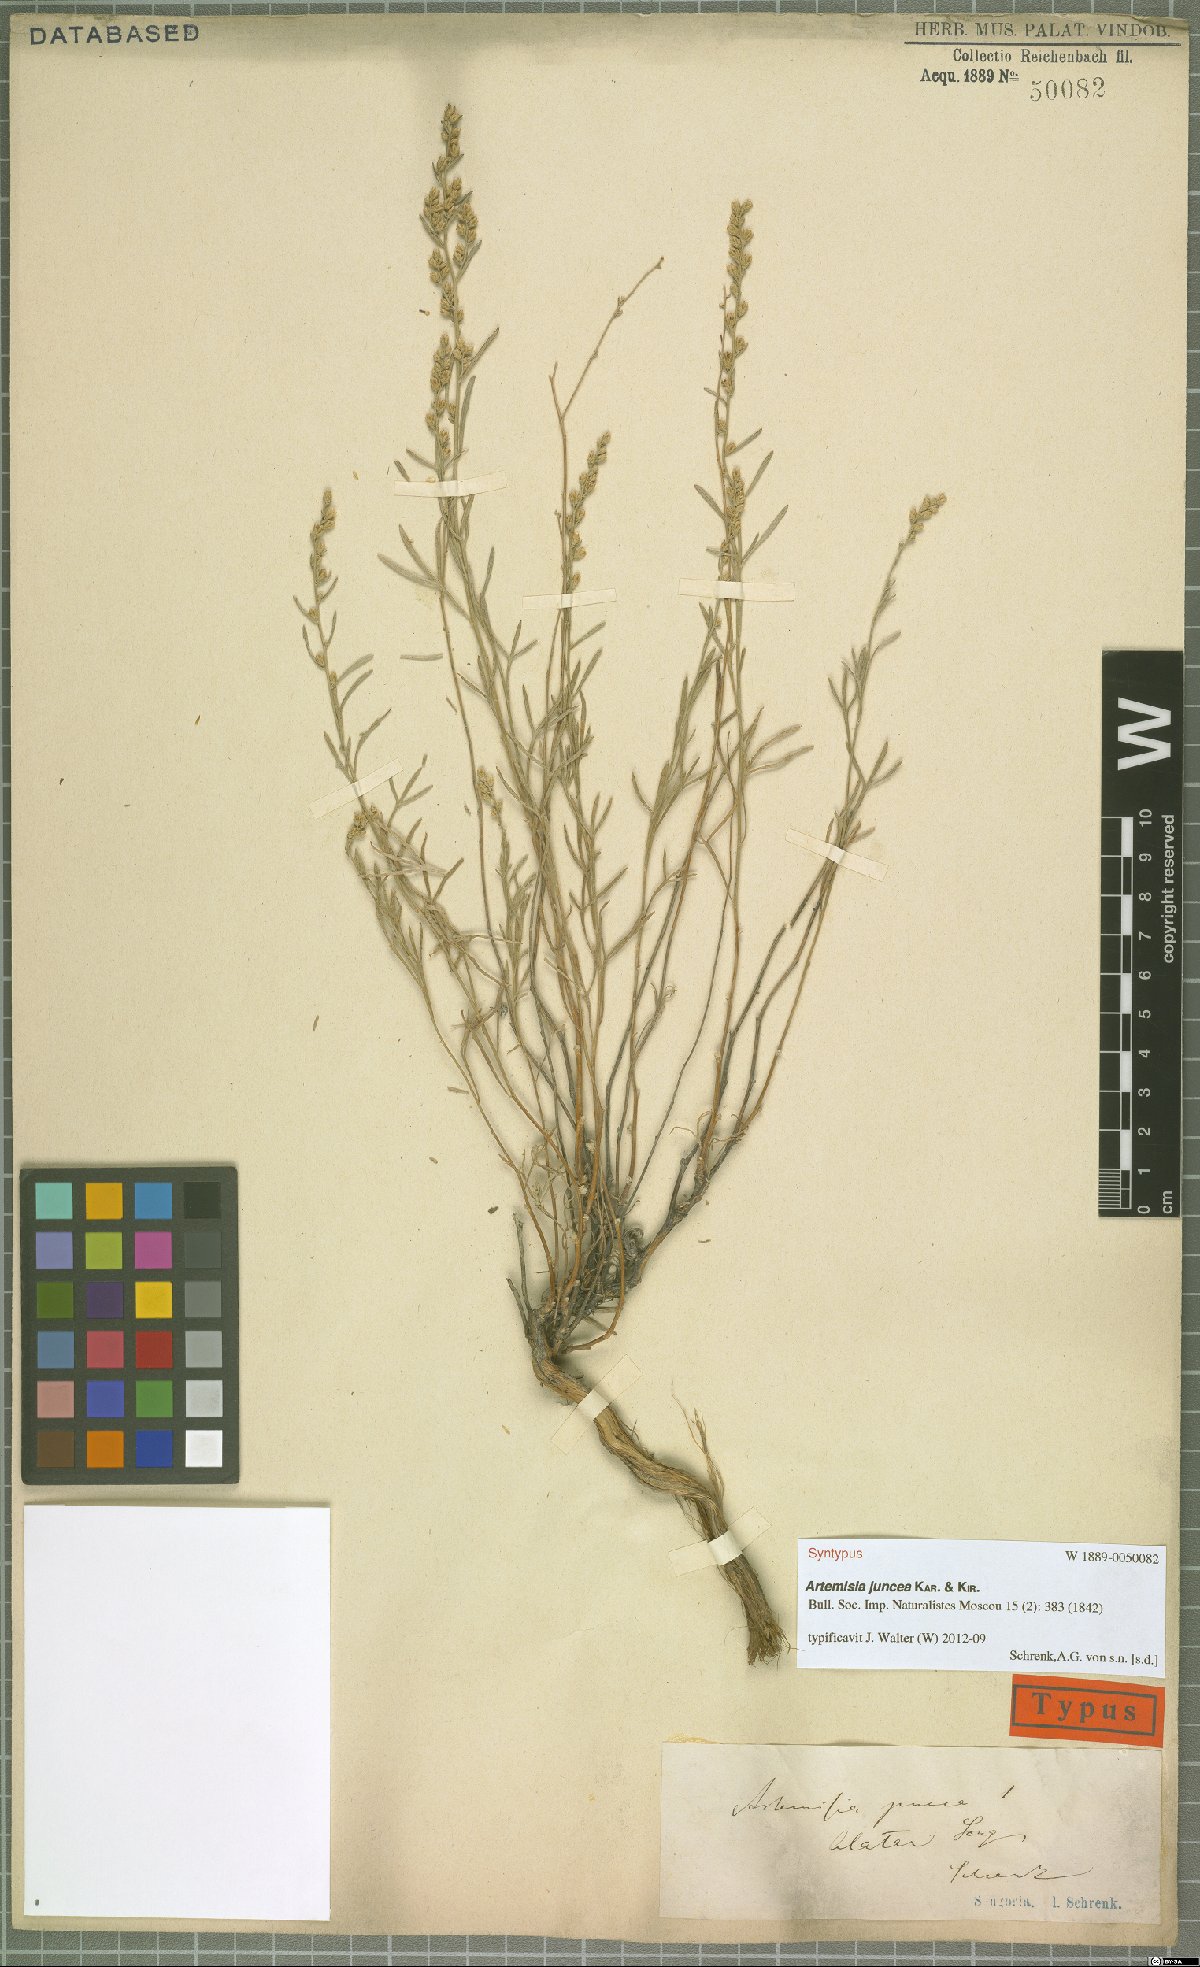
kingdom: Plantae
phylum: Tracheophyta
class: Magnoliopsida
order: Asterales
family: Asteraceae
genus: Artemisia
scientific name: Artemisia juncea
